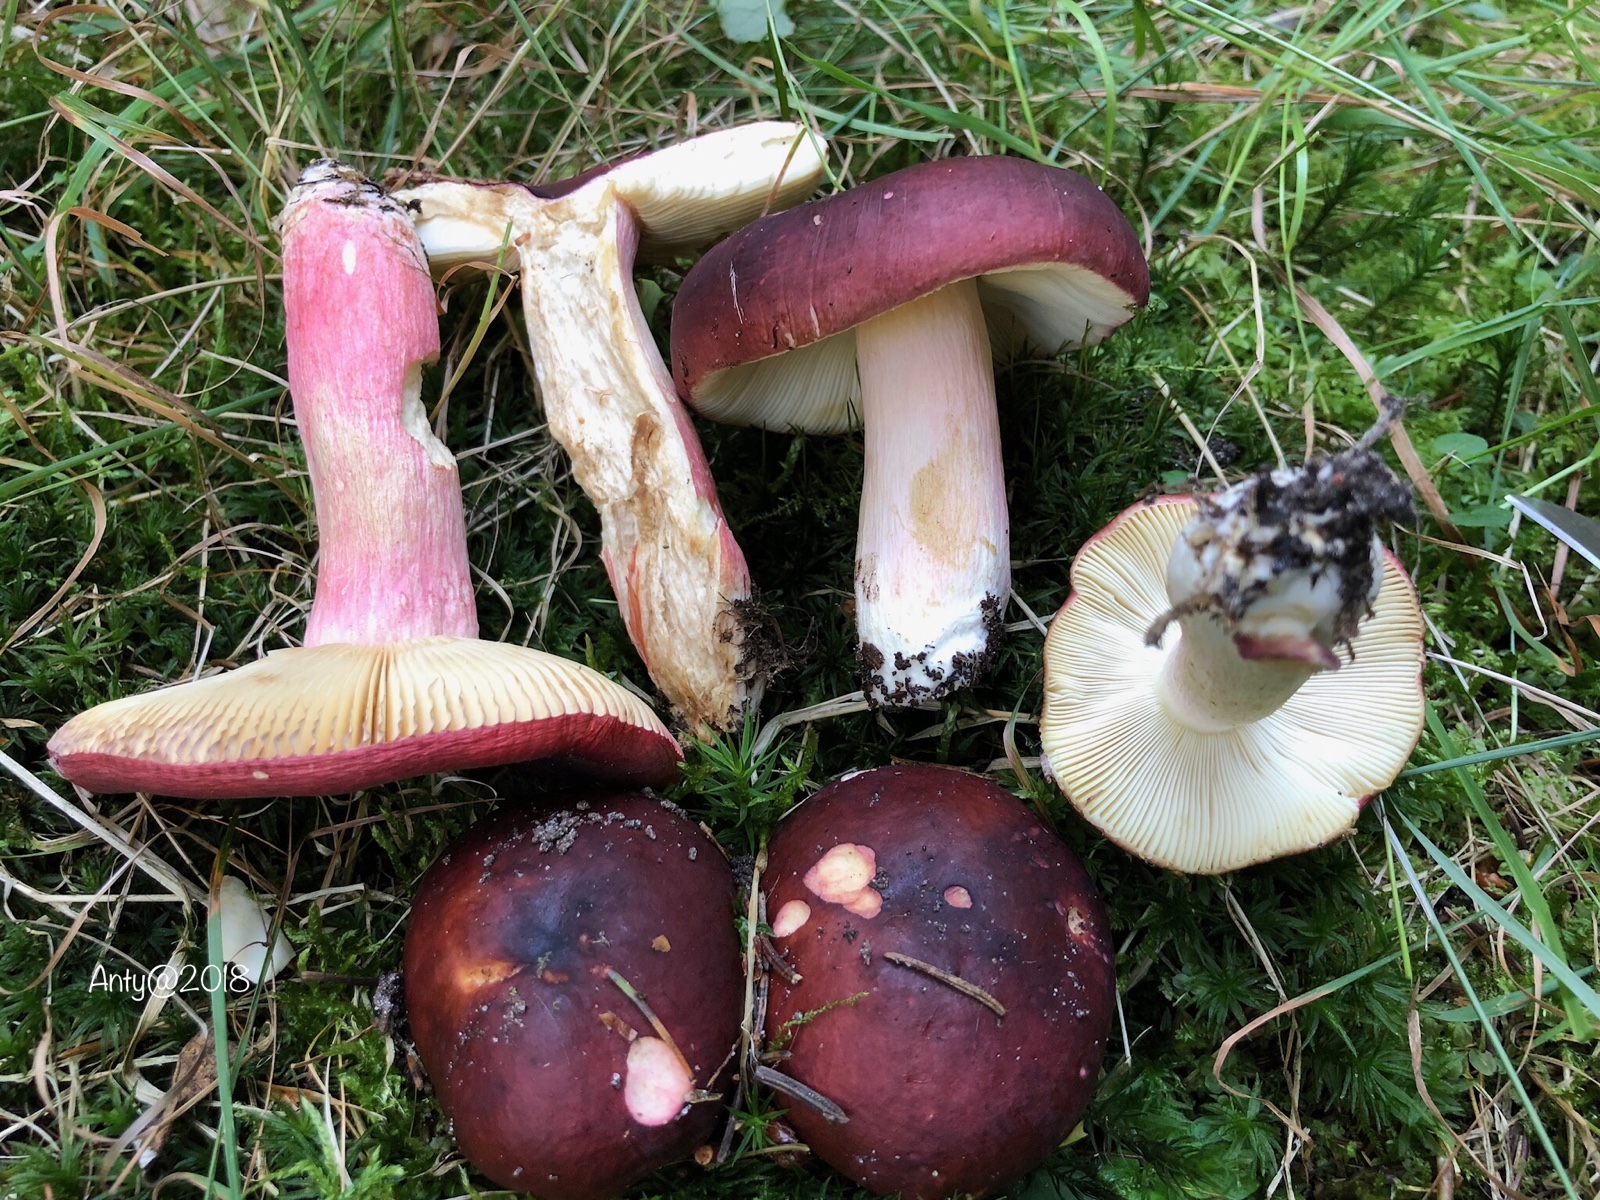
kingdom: Fungi
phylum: Basidiomycota
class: Agaricomycetes
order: Russulales
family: Russulaceae
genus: Russula
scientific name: Russula xerampelina
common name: hummer-skørhat
